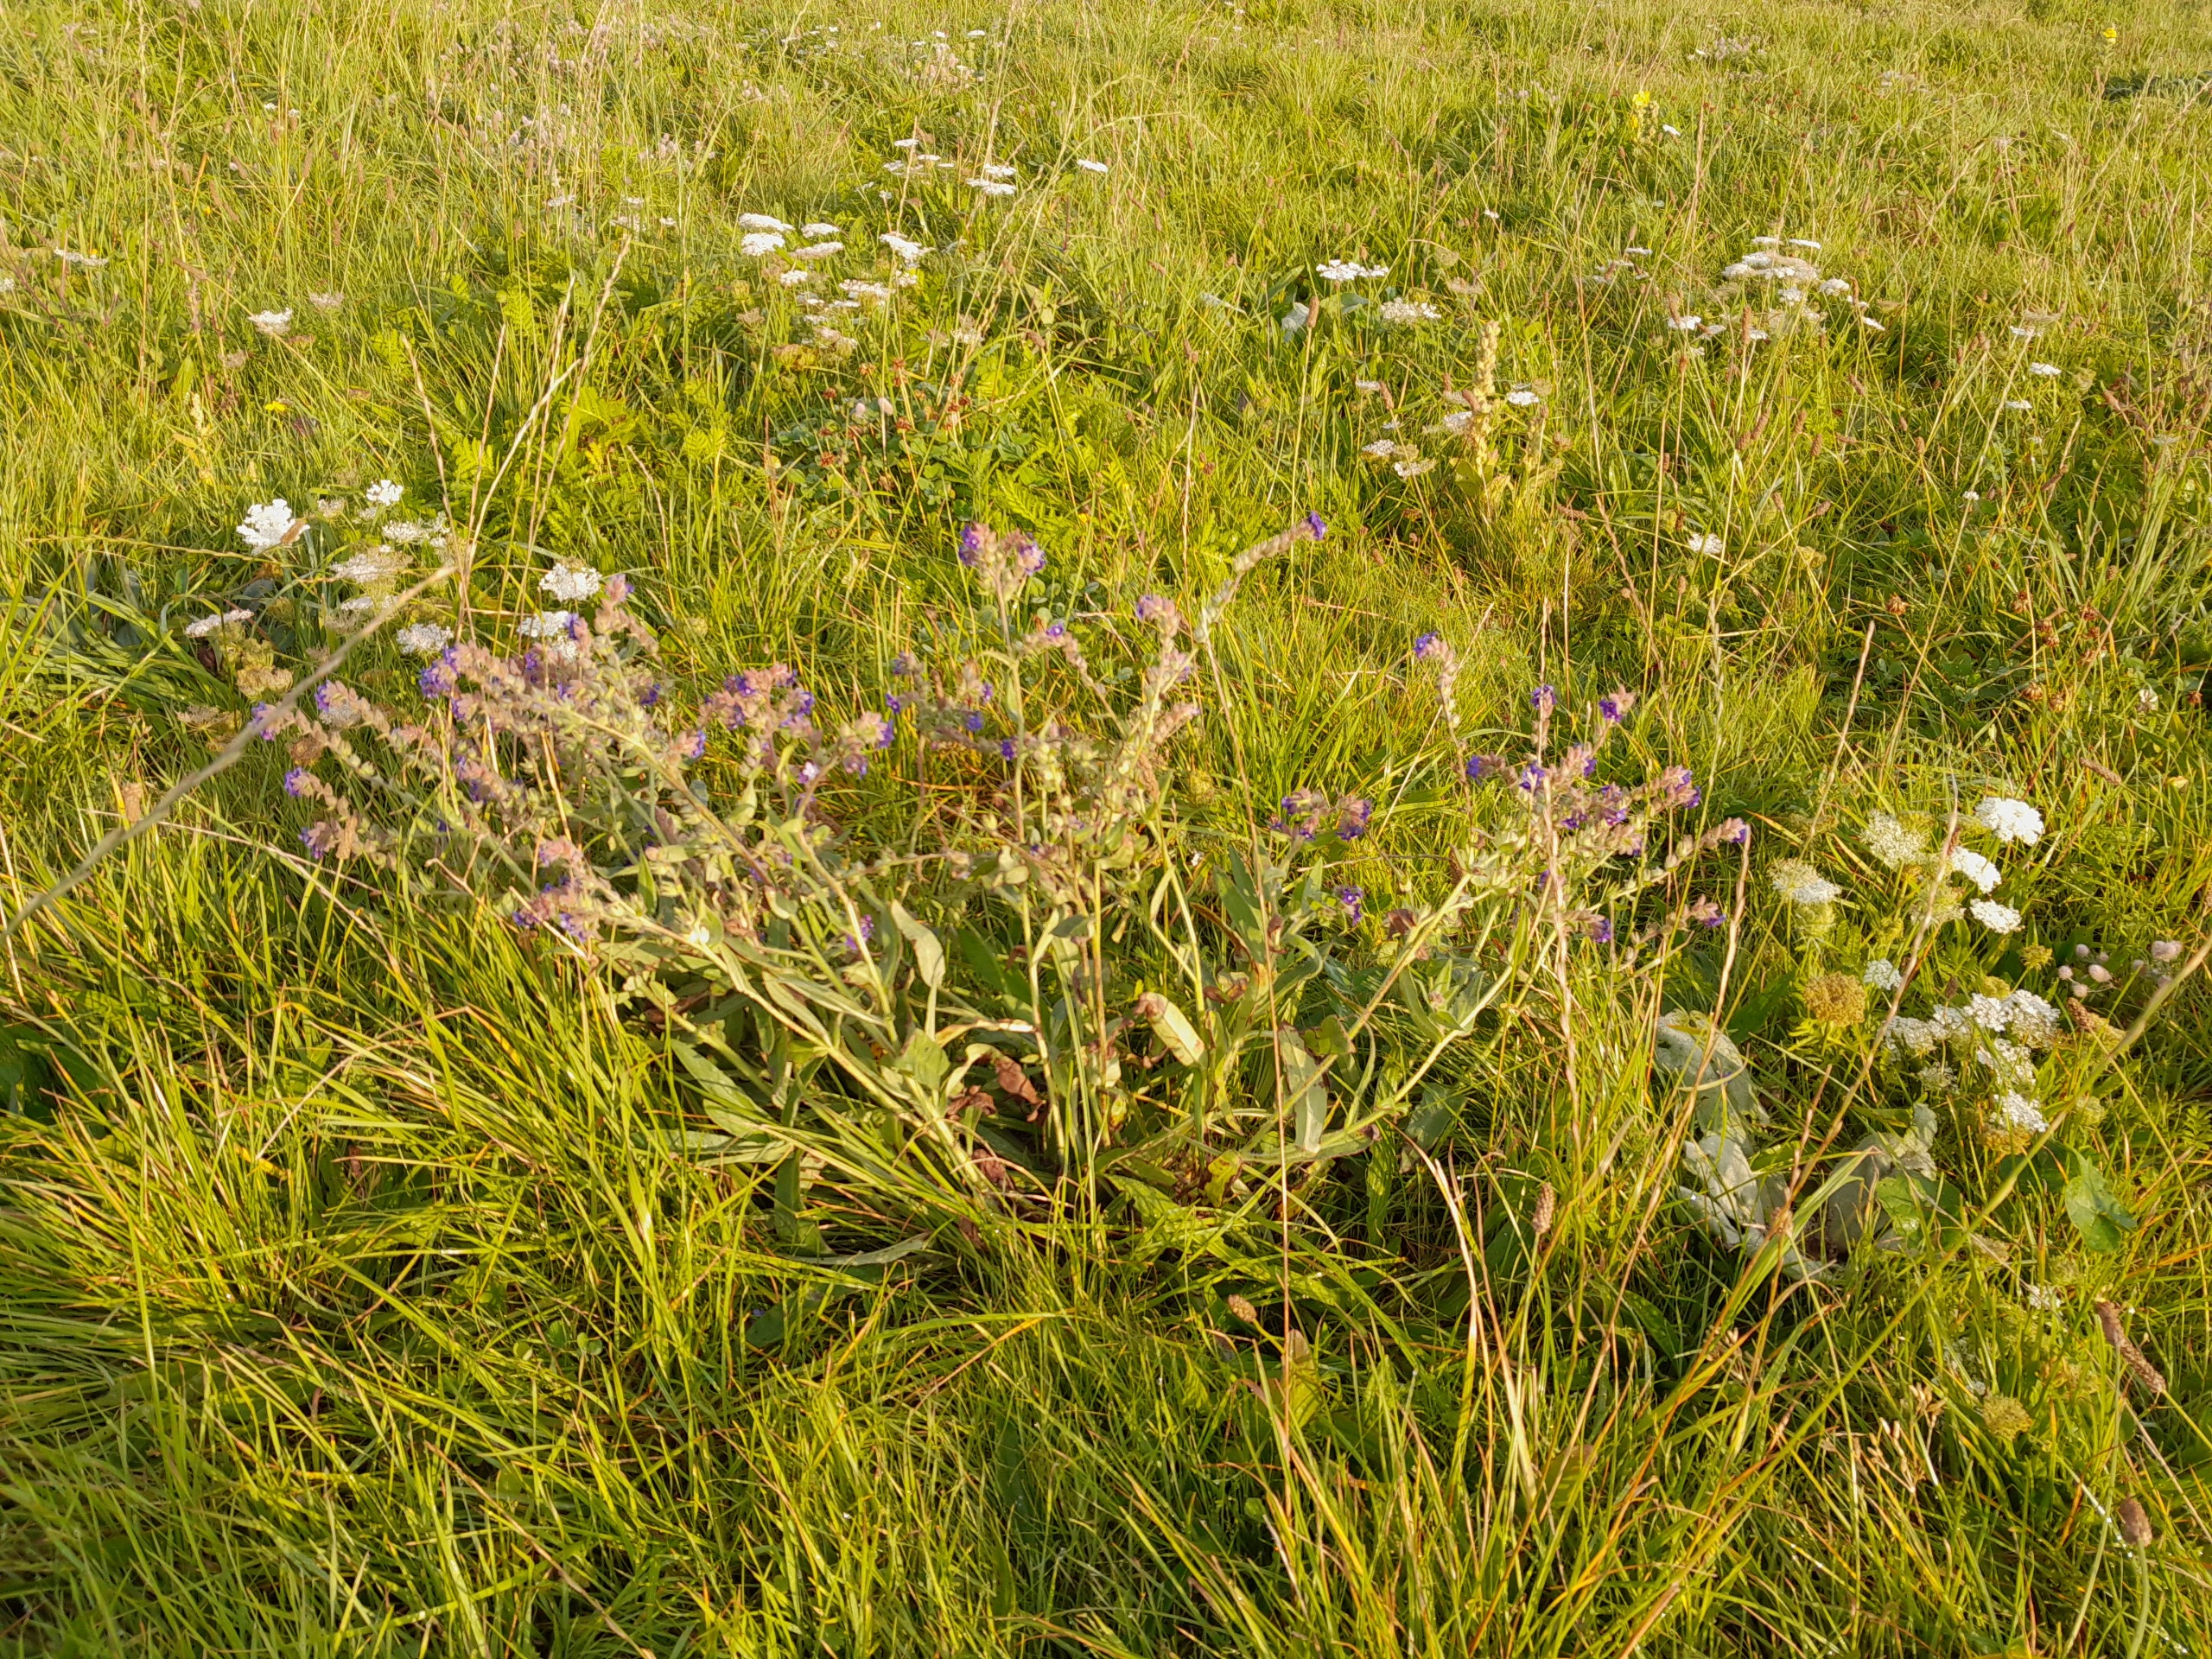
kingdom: Plantae
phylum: Tracheophyta
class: Magnoliopsida
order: Boraginales
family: Boraginaceae
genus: Anchusa
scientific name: Anchusa officinalis
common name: Læge-oksetunge
